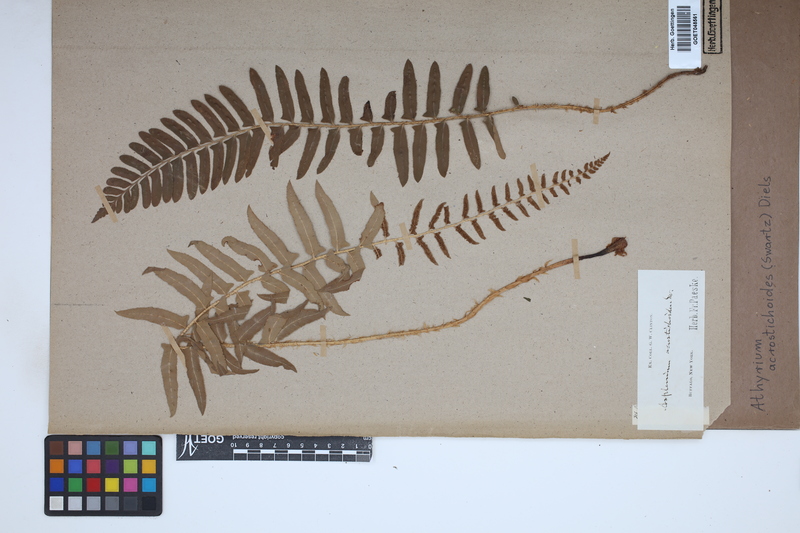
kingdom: Plantae
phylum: Tracheophyta
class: Polypodiopsida
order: Polypodiales
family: Athyriaceae
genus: Deparia
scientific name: Deparia acrostichoides
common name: Silver false spleenwort
